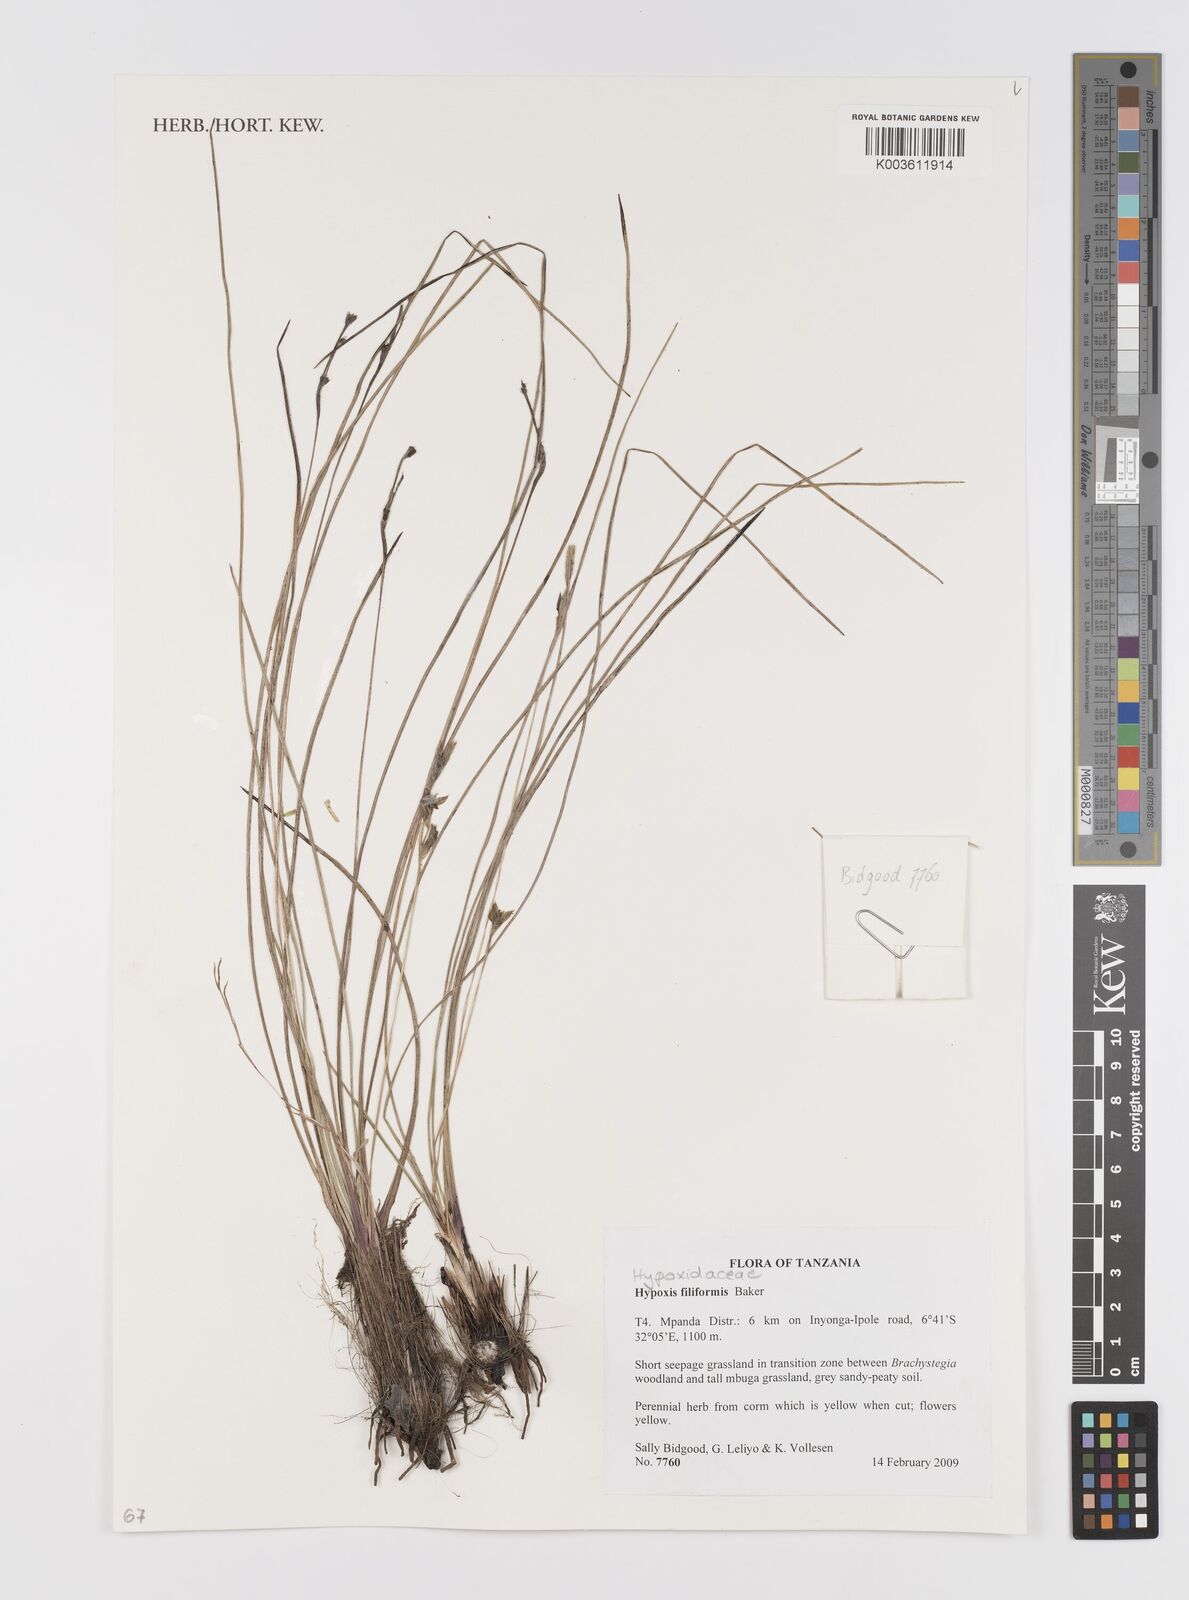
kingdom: Plantae
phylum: Tracheophyta
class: Liliopsida
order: Asparagales
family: Hypoxidaceae
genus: Hypoxis
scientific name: Hypoxis filiformis
